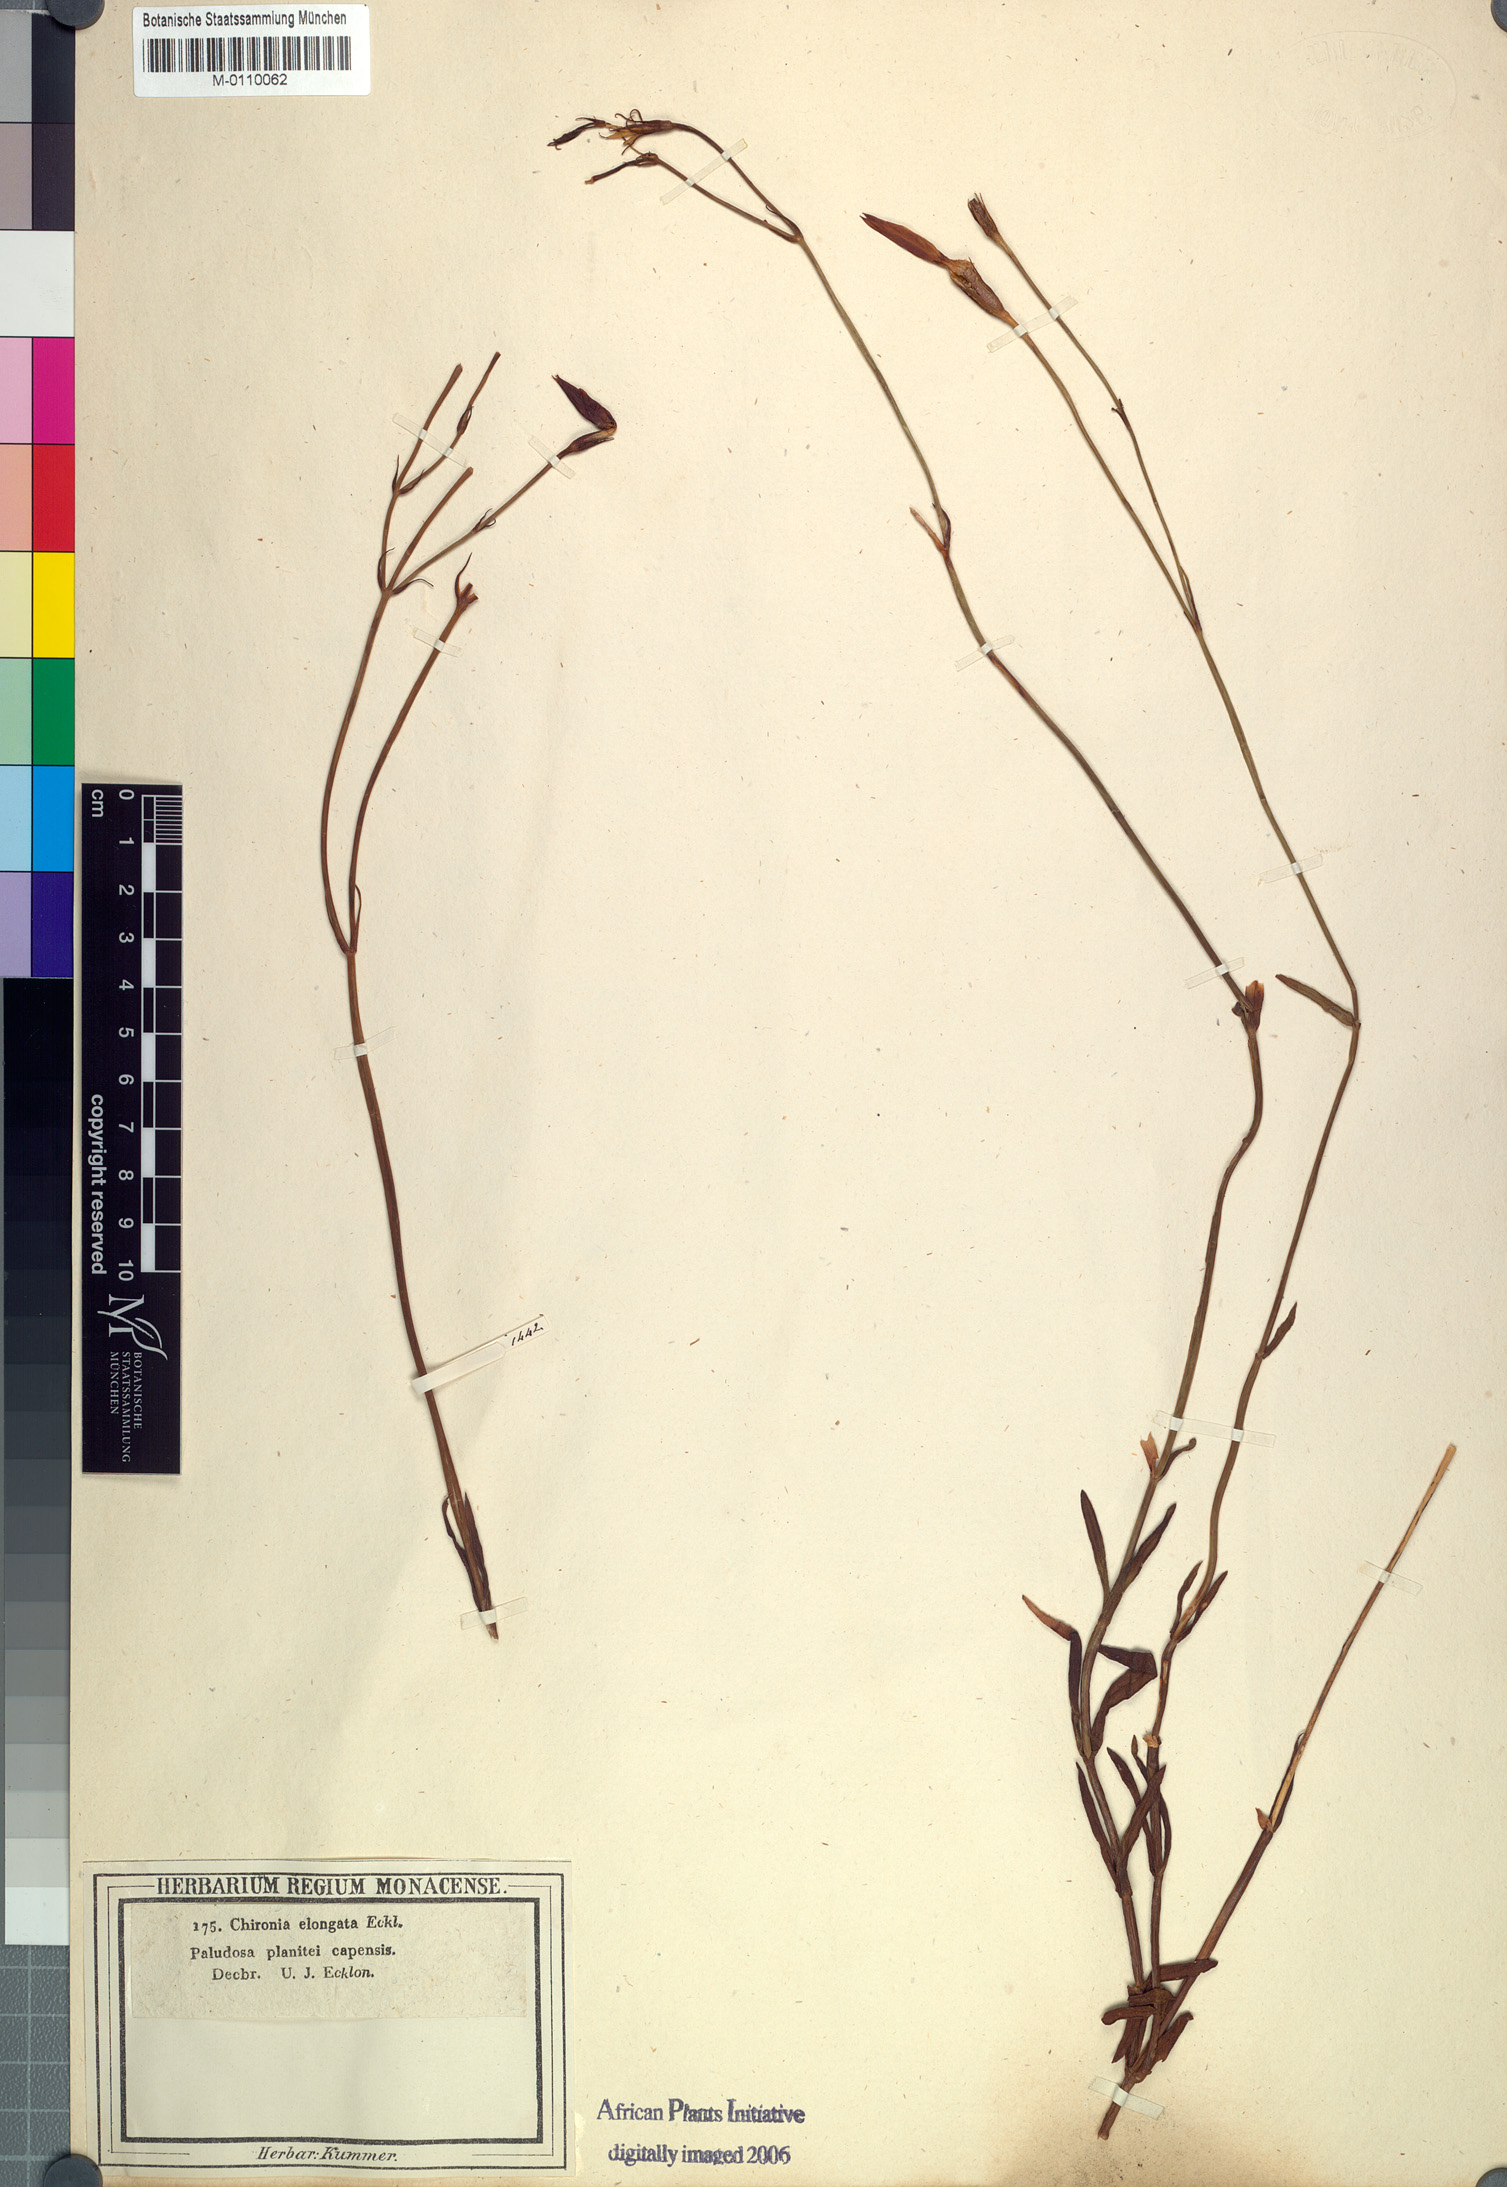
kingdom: Plantae
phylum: Tracheophyta
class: Magnoliopsida
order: Gentianales
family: Gentianaceae
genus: Chironia
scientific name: Chironia jasminoides
